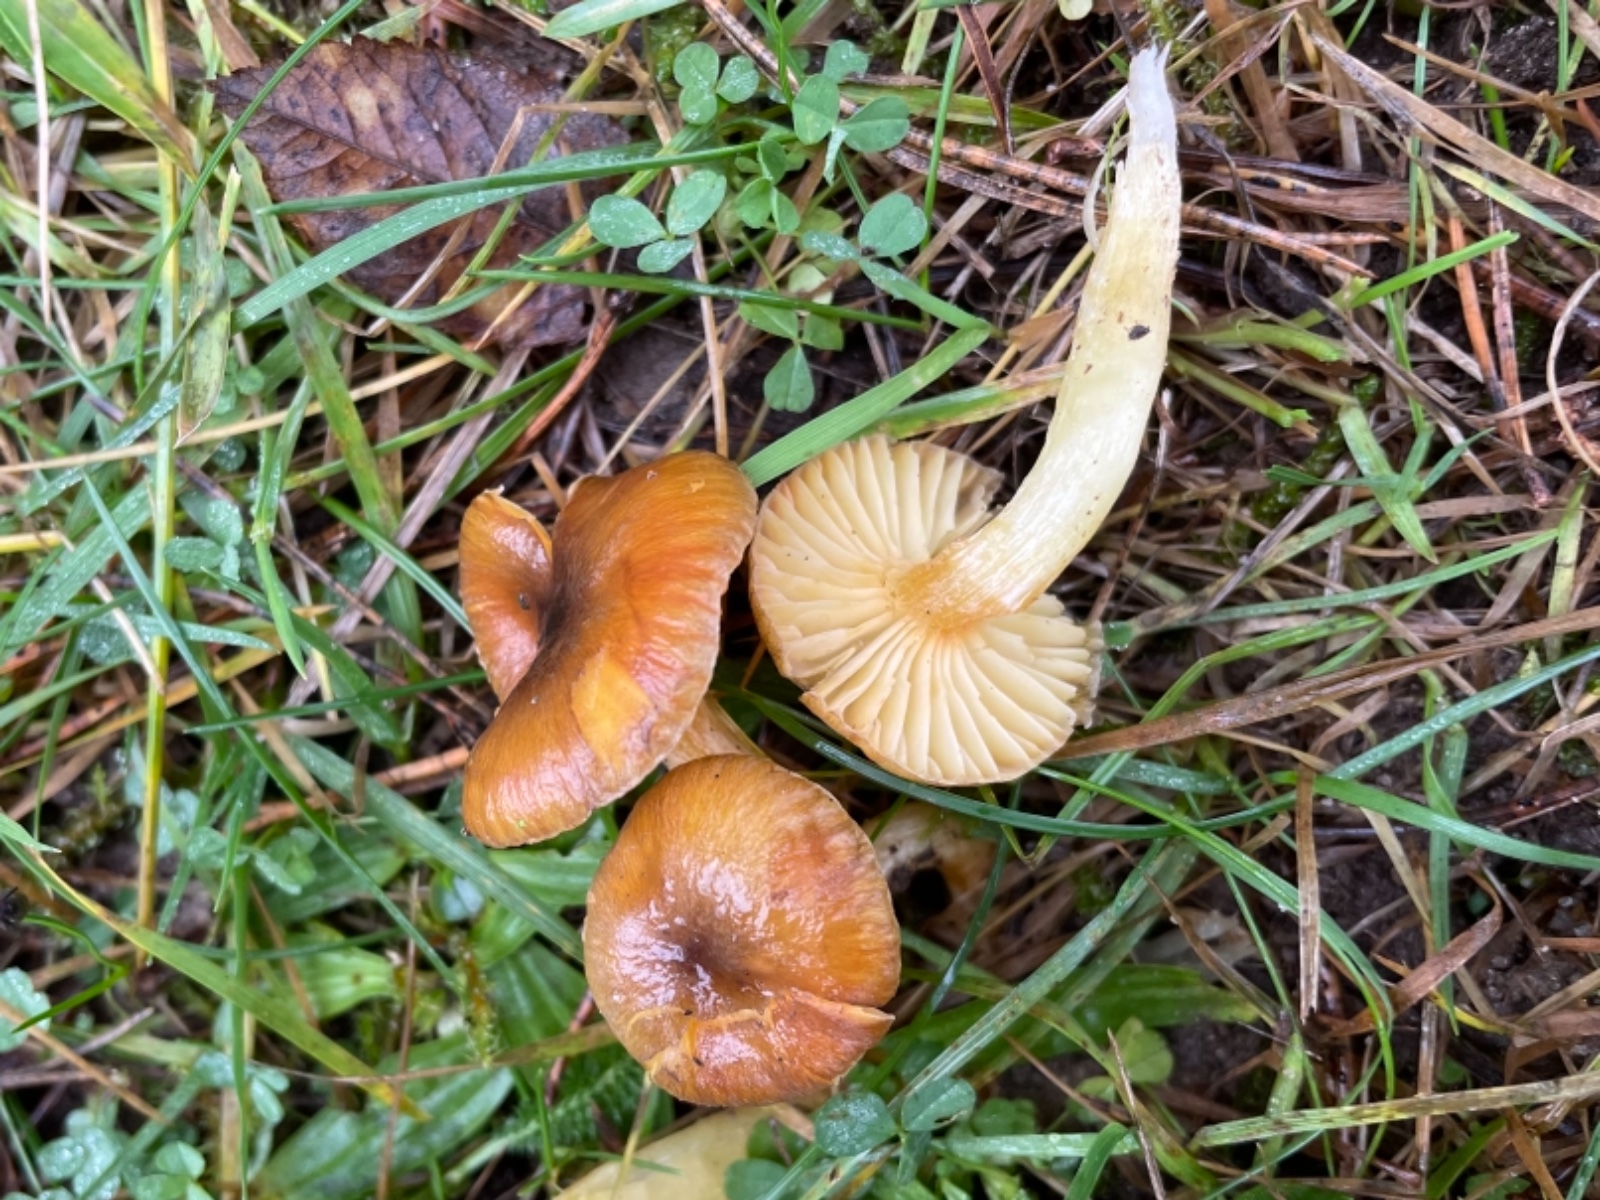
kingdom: Fungi
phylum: Basidiomycota
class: Agaricomycetes
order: Agaricales
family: Hygrophoraceae
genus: Hygrophorus
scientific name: Hygrophorus hypothejus
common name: frost-sneglehat
